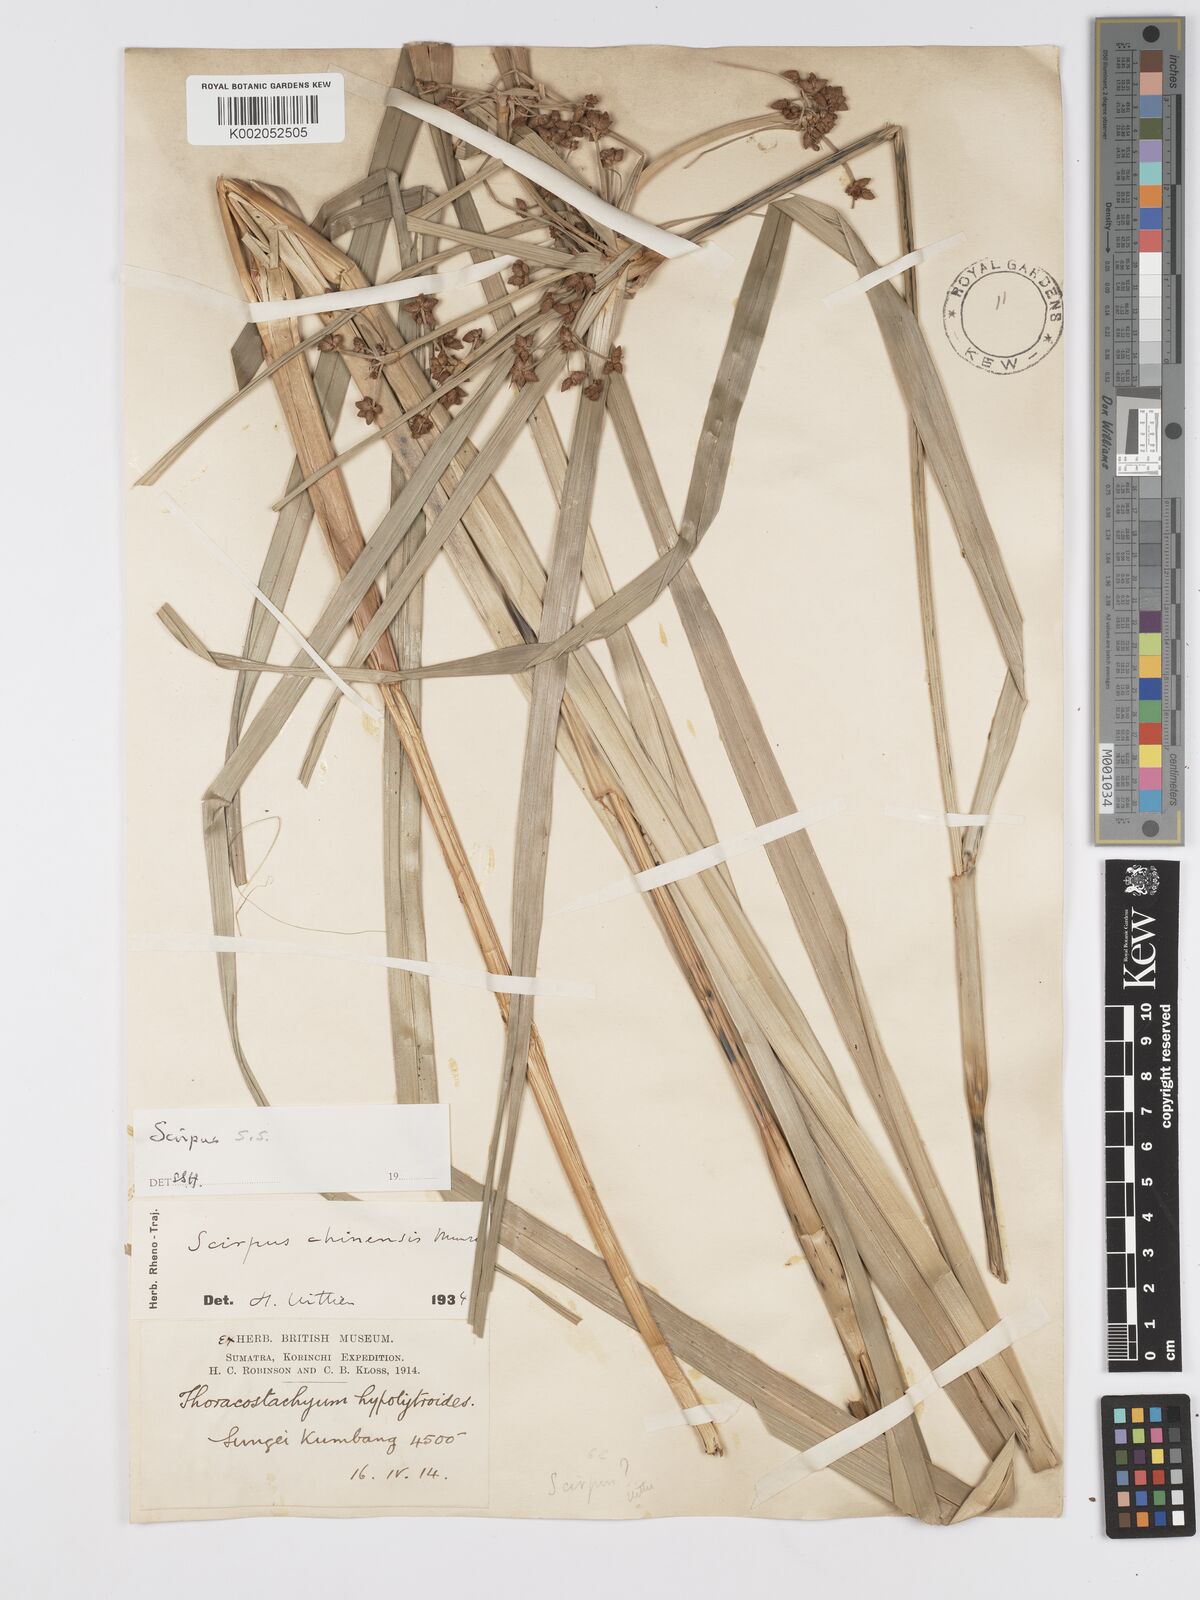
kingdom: Plantae
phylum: Tracheophyta
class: Liliopsida
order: Poales
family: Cyperaceae
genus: Scirpus
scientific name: Scirpus
